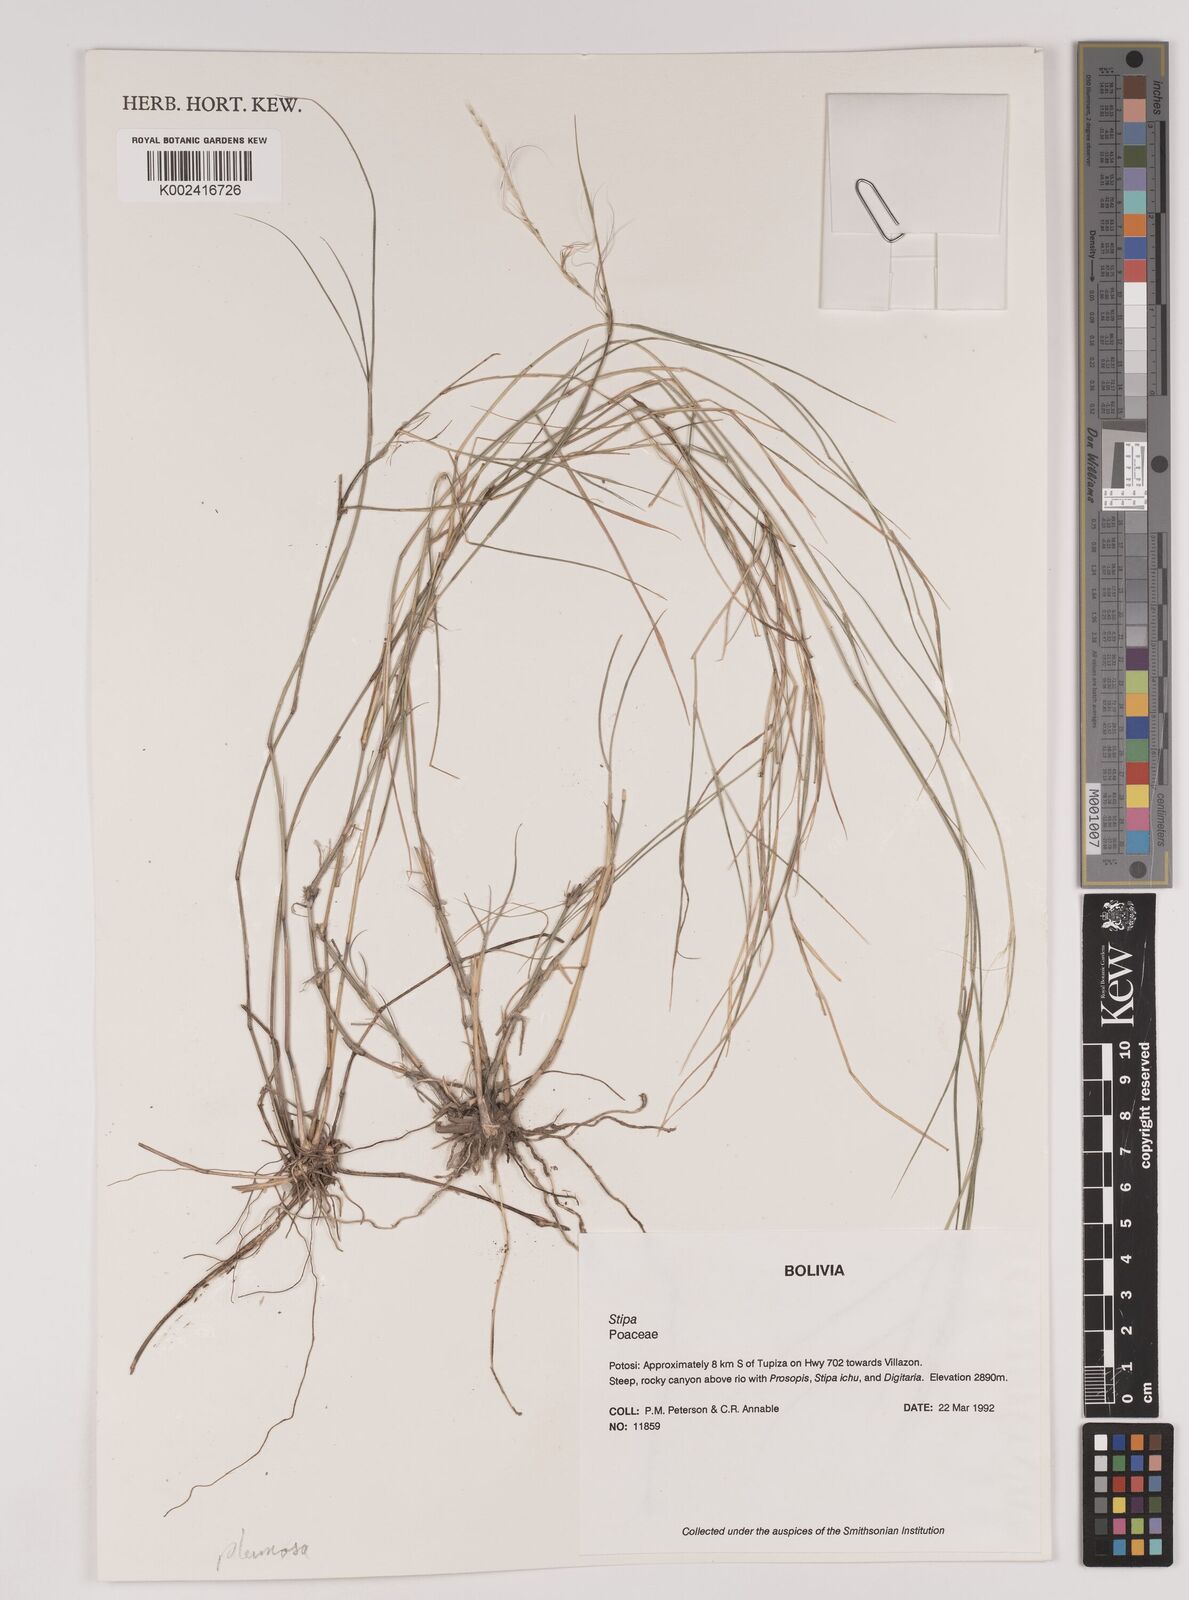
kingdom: Plantae
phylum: Tracheophyta
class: Liliopsida
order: Poales
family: Poaceae
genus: Stipa
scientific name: Stipa plumosa
